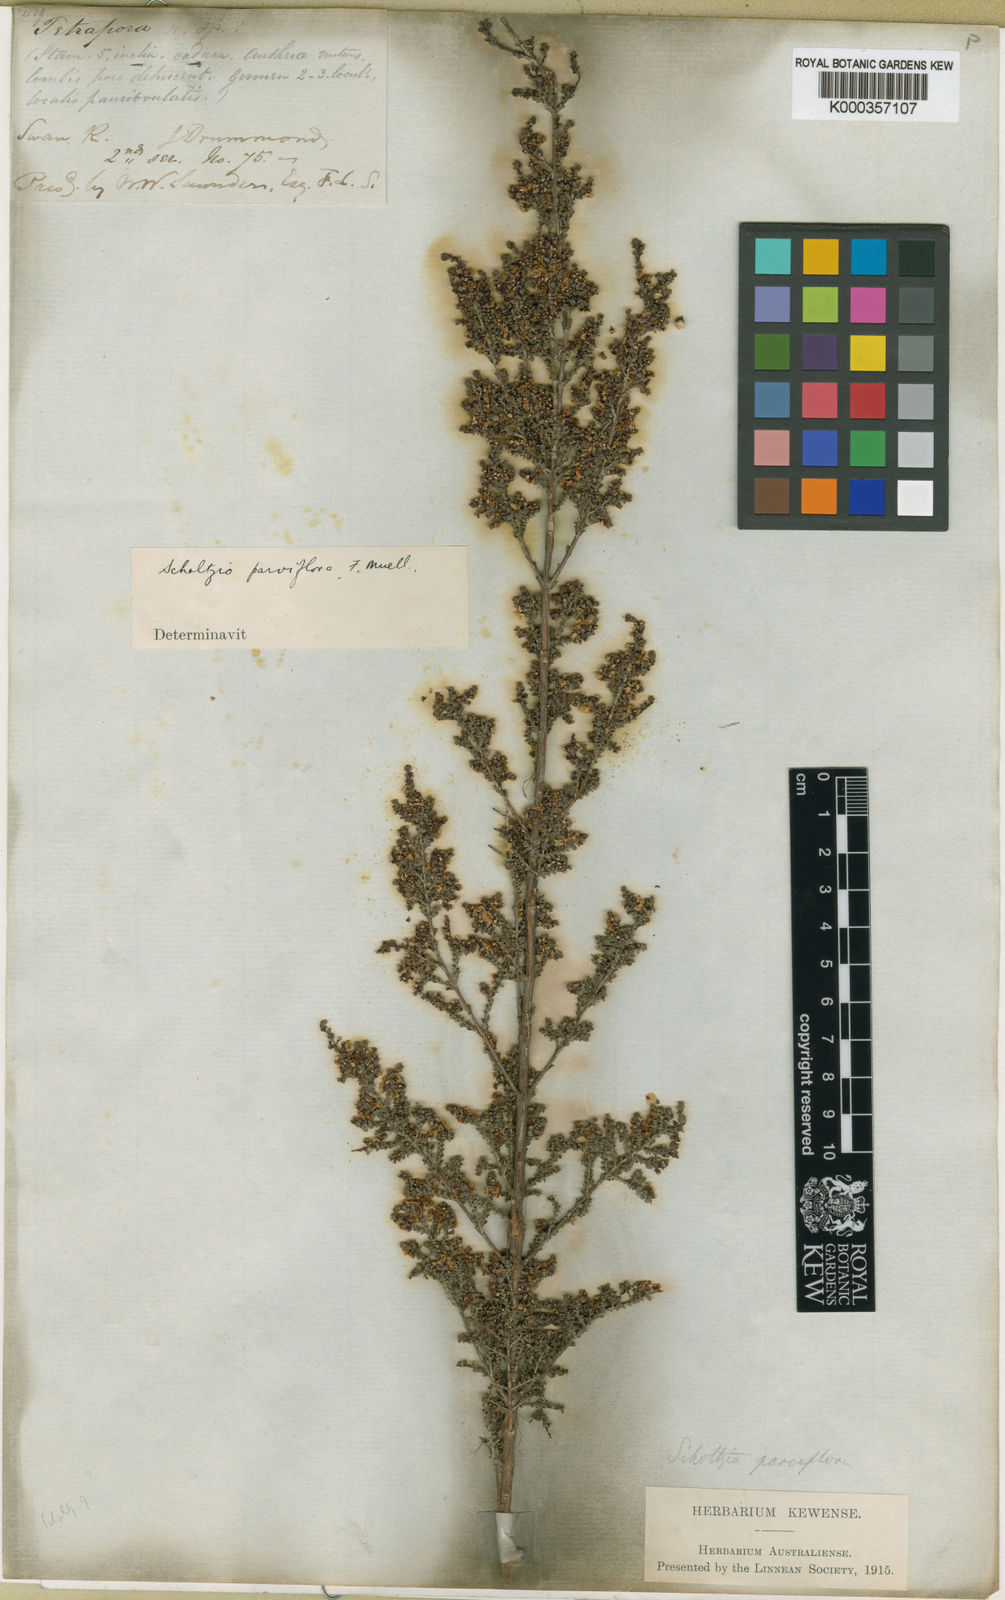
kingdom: Plantae
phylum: Tracheophyta
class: Magnoliopsida
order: Myrtales
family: Myrtaceae
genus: Scholtzia
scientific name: Scholtzia parviflora
